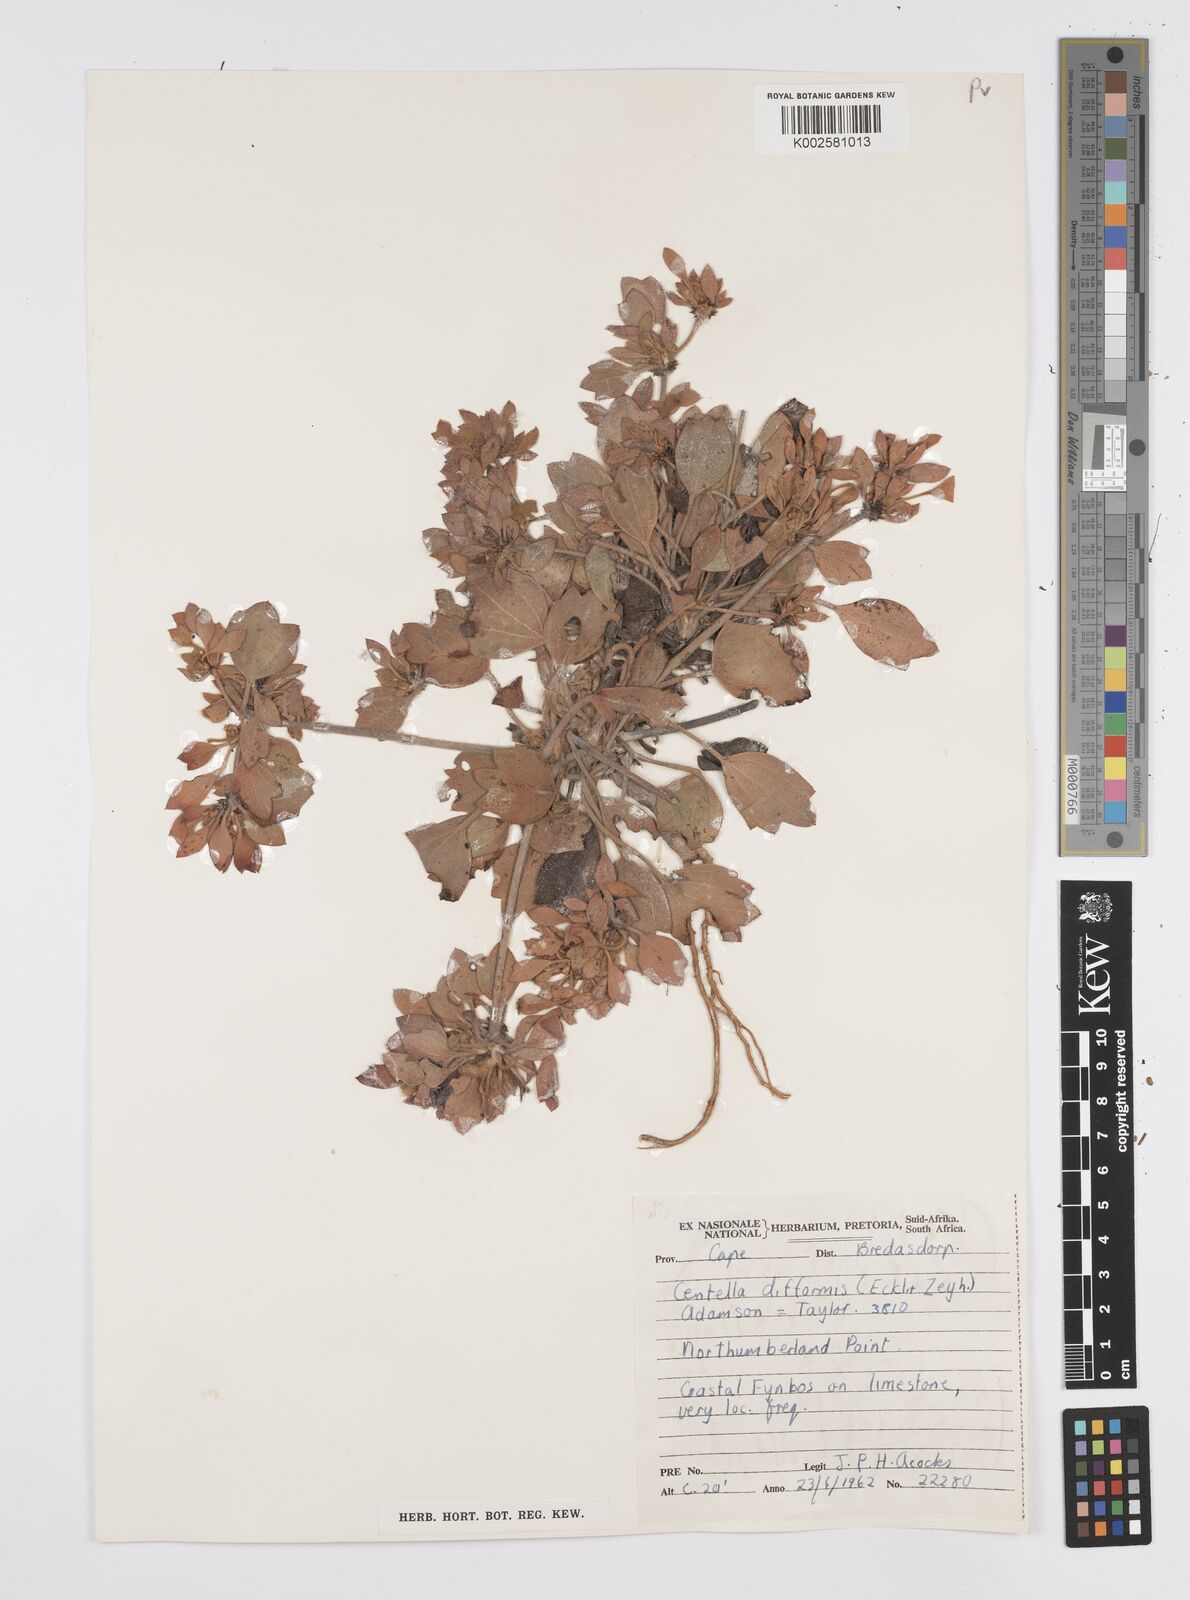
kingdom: Plantae
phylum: Tracheophyta
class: Magnoliopsida
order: Apiales
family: Apiaceae
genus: Centella
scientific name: Centella difformis
